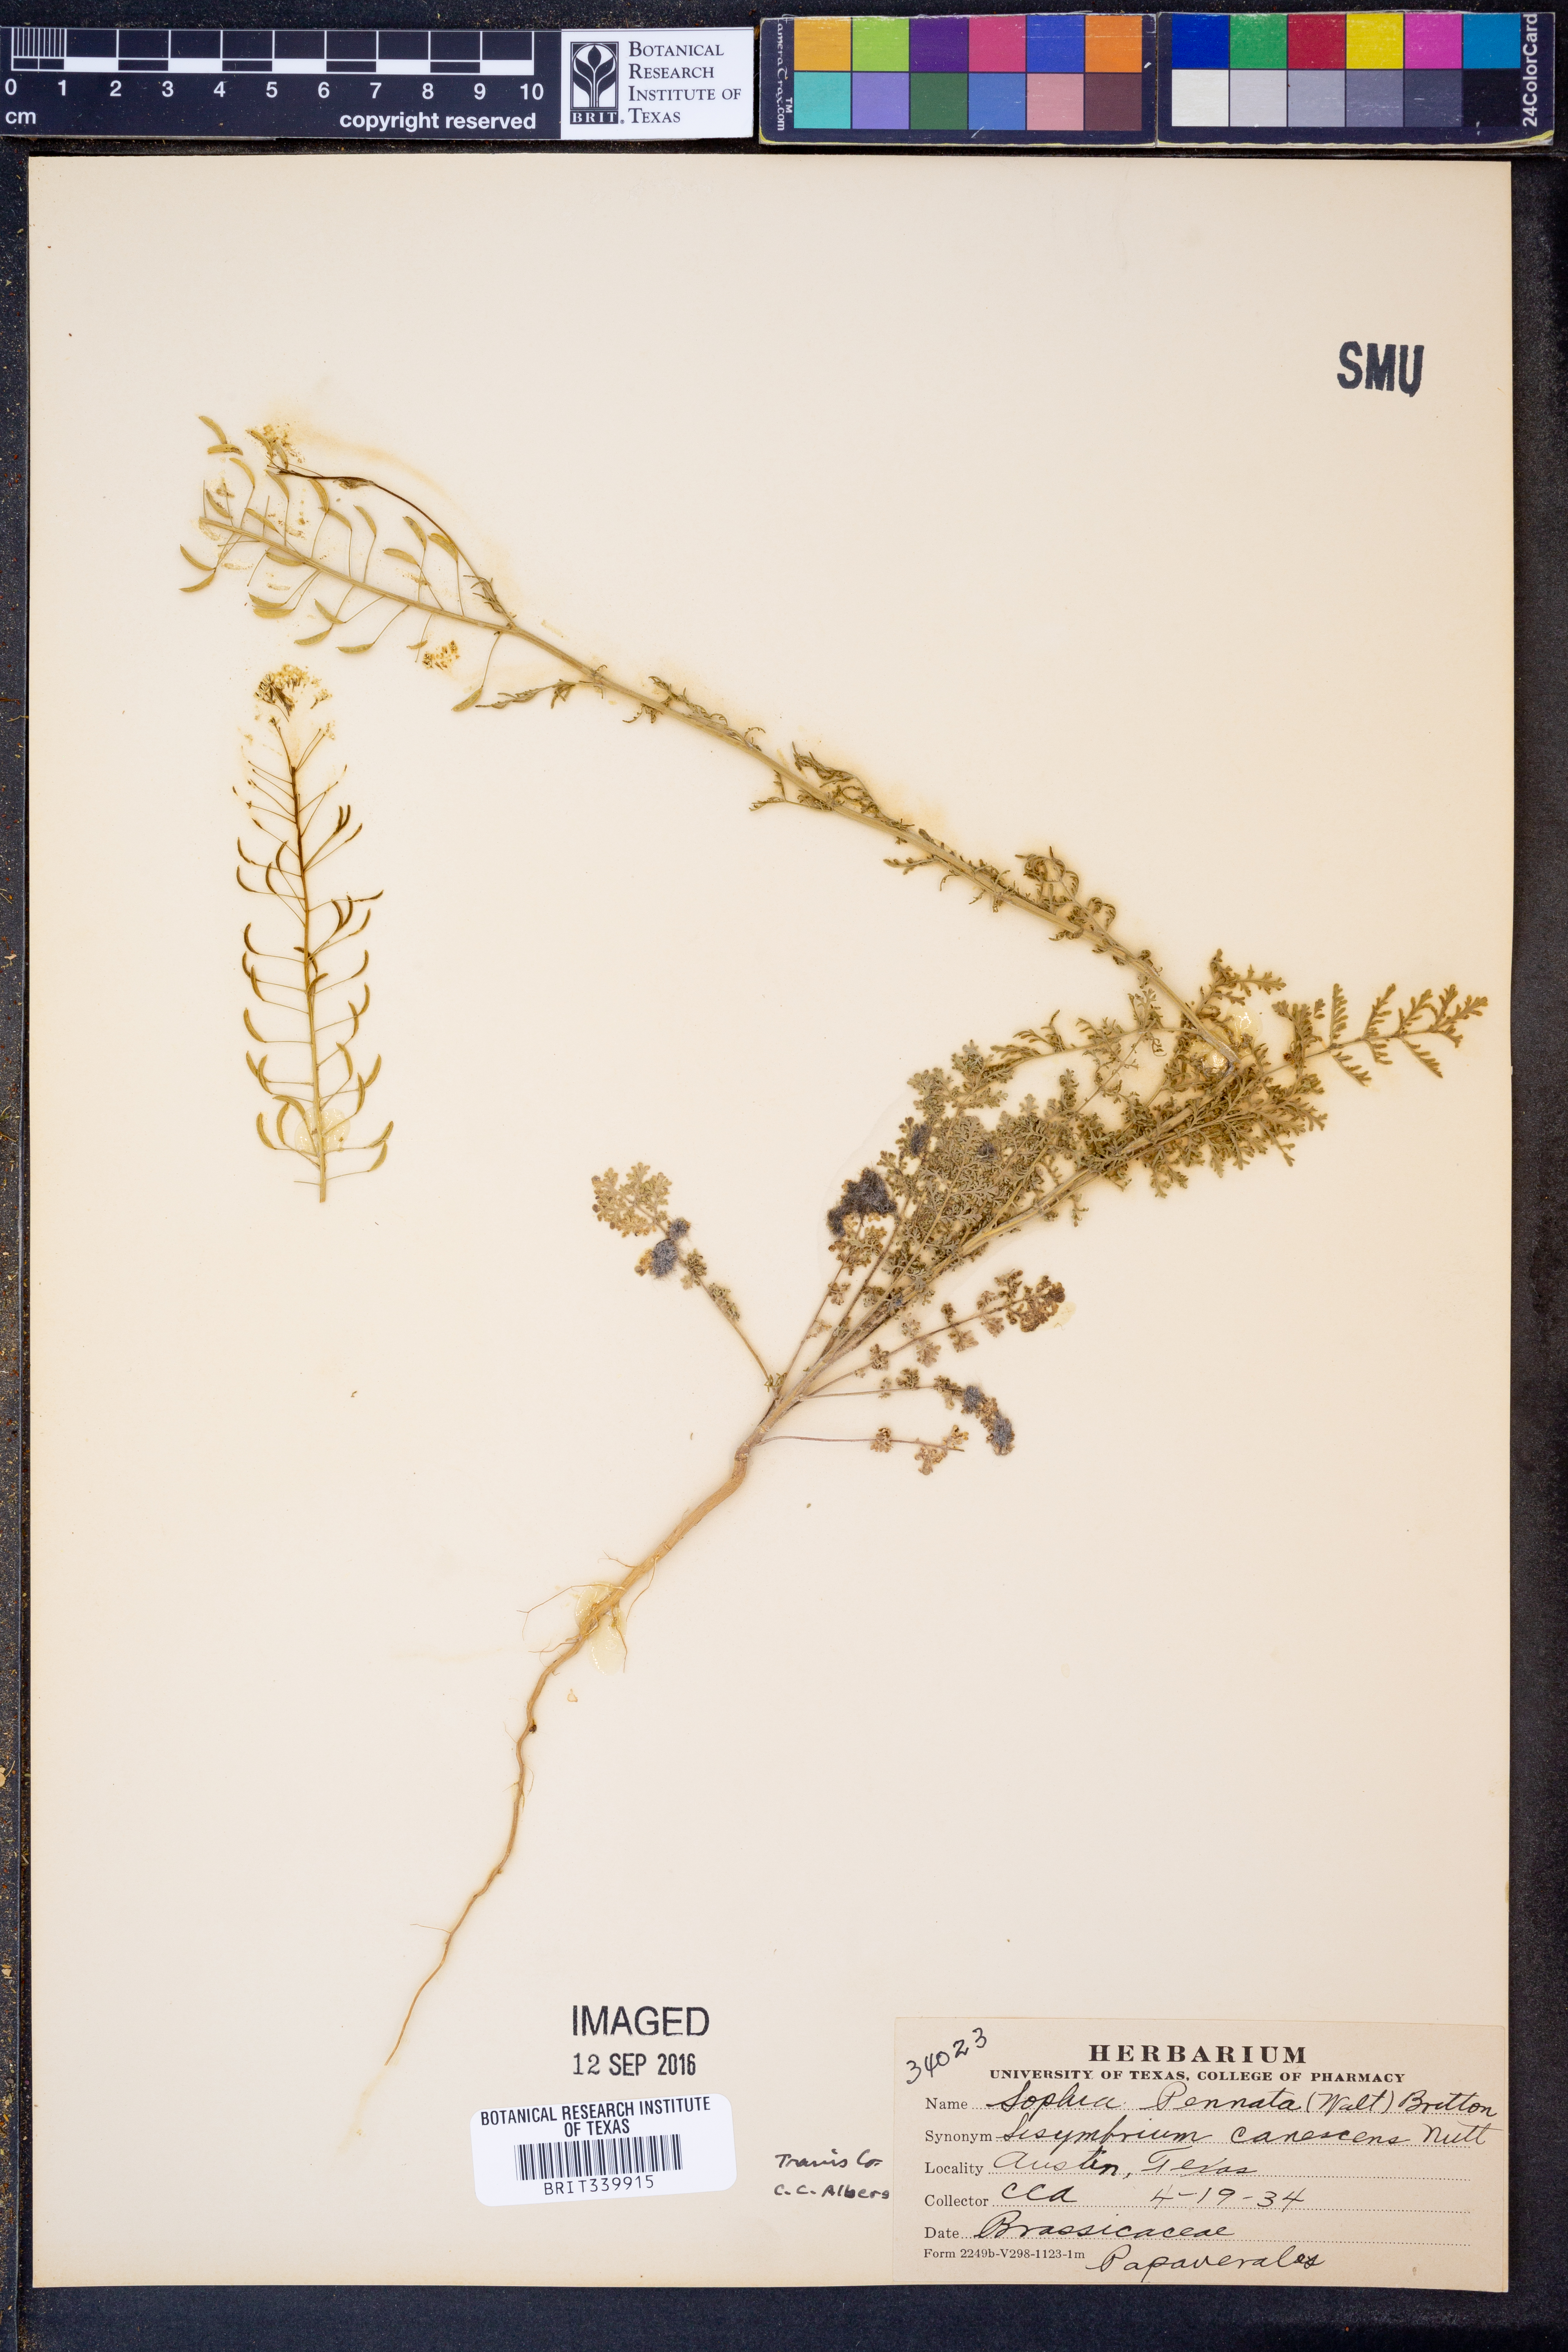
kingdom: Plantae
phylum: Tracheophyta
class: Magnoliopsida
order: Brassicales
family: Brassicaceae
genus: Descurainia
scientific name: Descurainia pinnata
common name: Western tansy mustard
